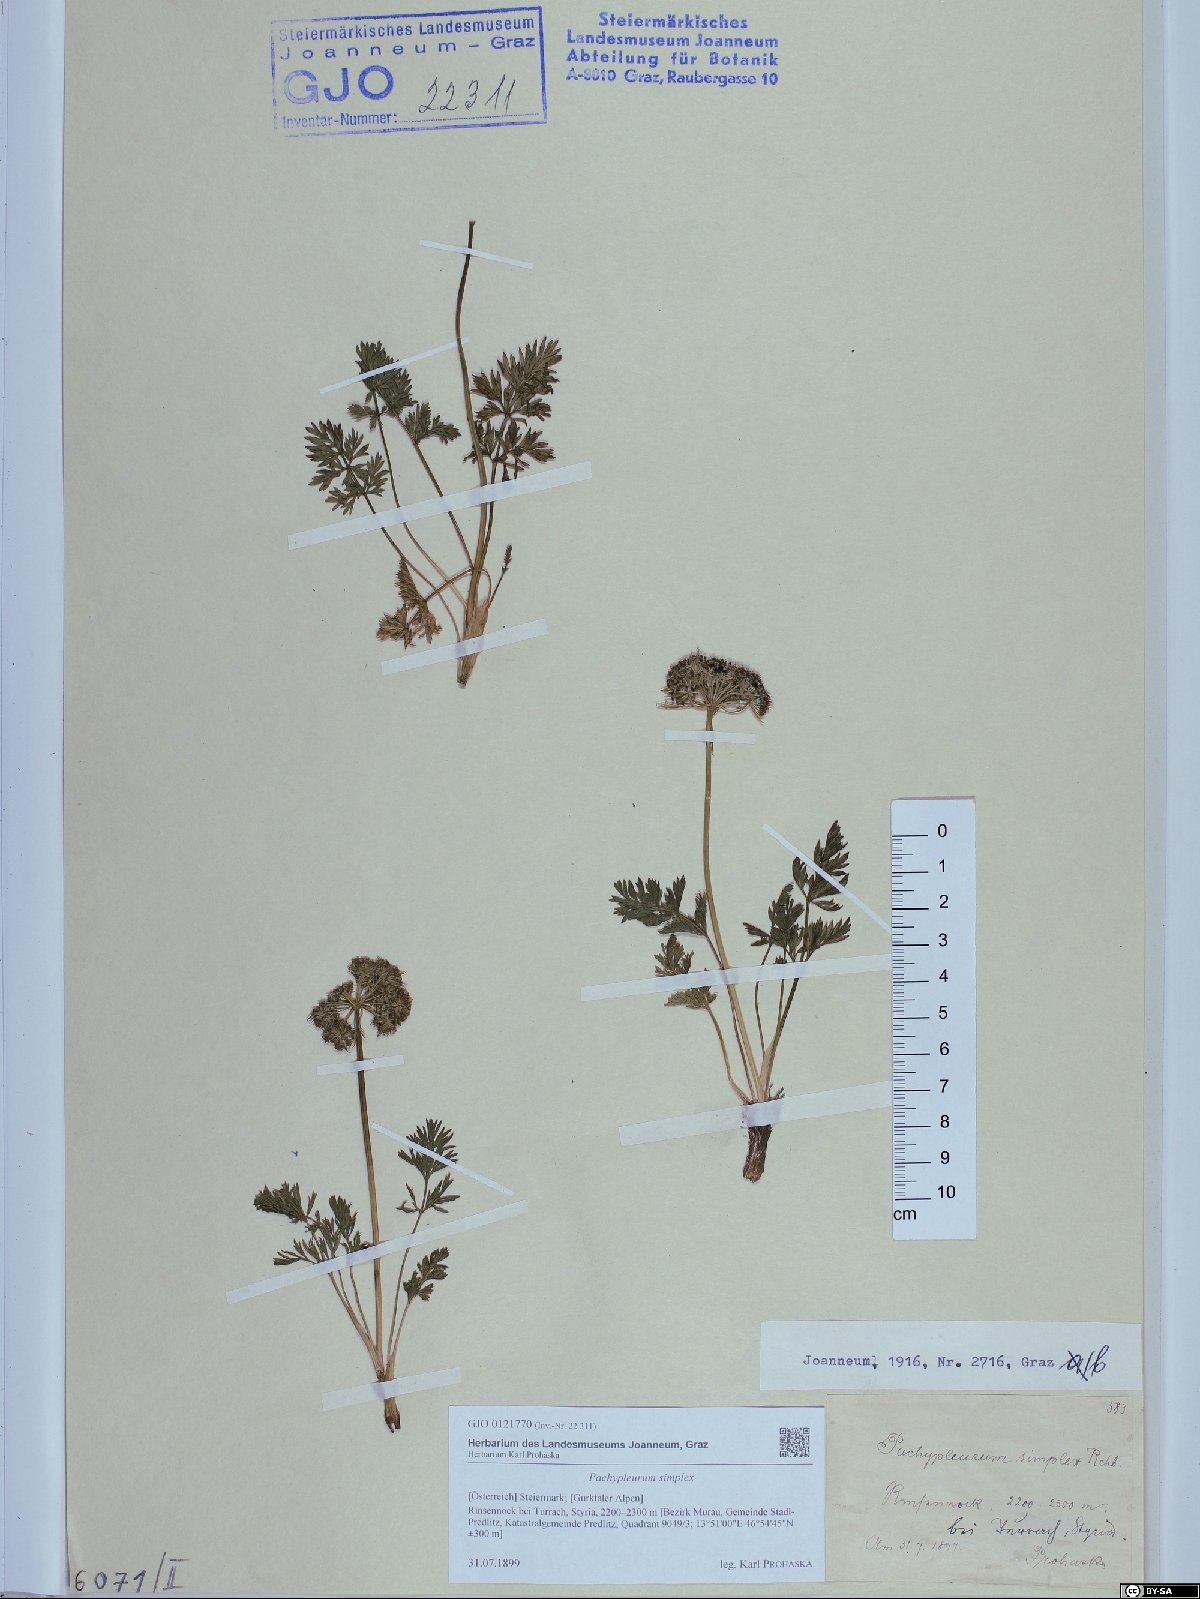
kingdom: Plantae
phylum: Tracheophyta
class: Magnoliopsida
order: Apiales
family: Apiaceae
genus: Pachypleurum
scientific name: Pachypleurum mutellinoides
